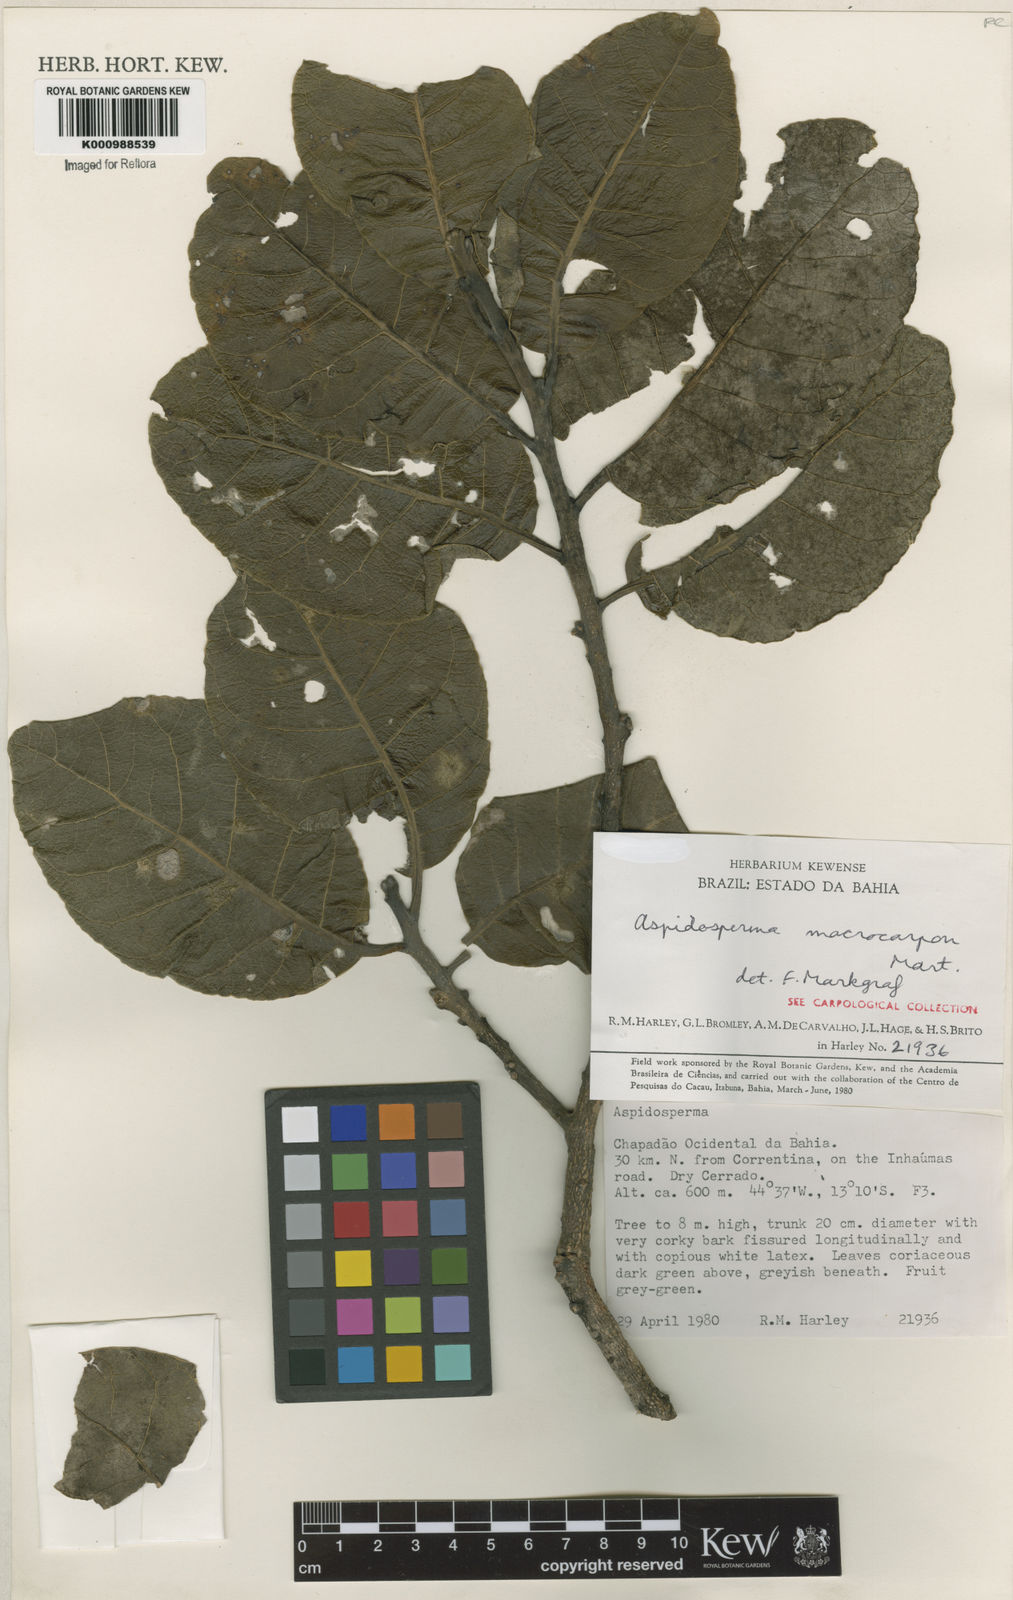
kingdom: Plantae
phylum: Tracheophyta
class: Magnoliopsida
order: Gentianales
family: Apocynaceae
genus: Aspidosperma
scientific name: Aspidosperma macrocarpon
